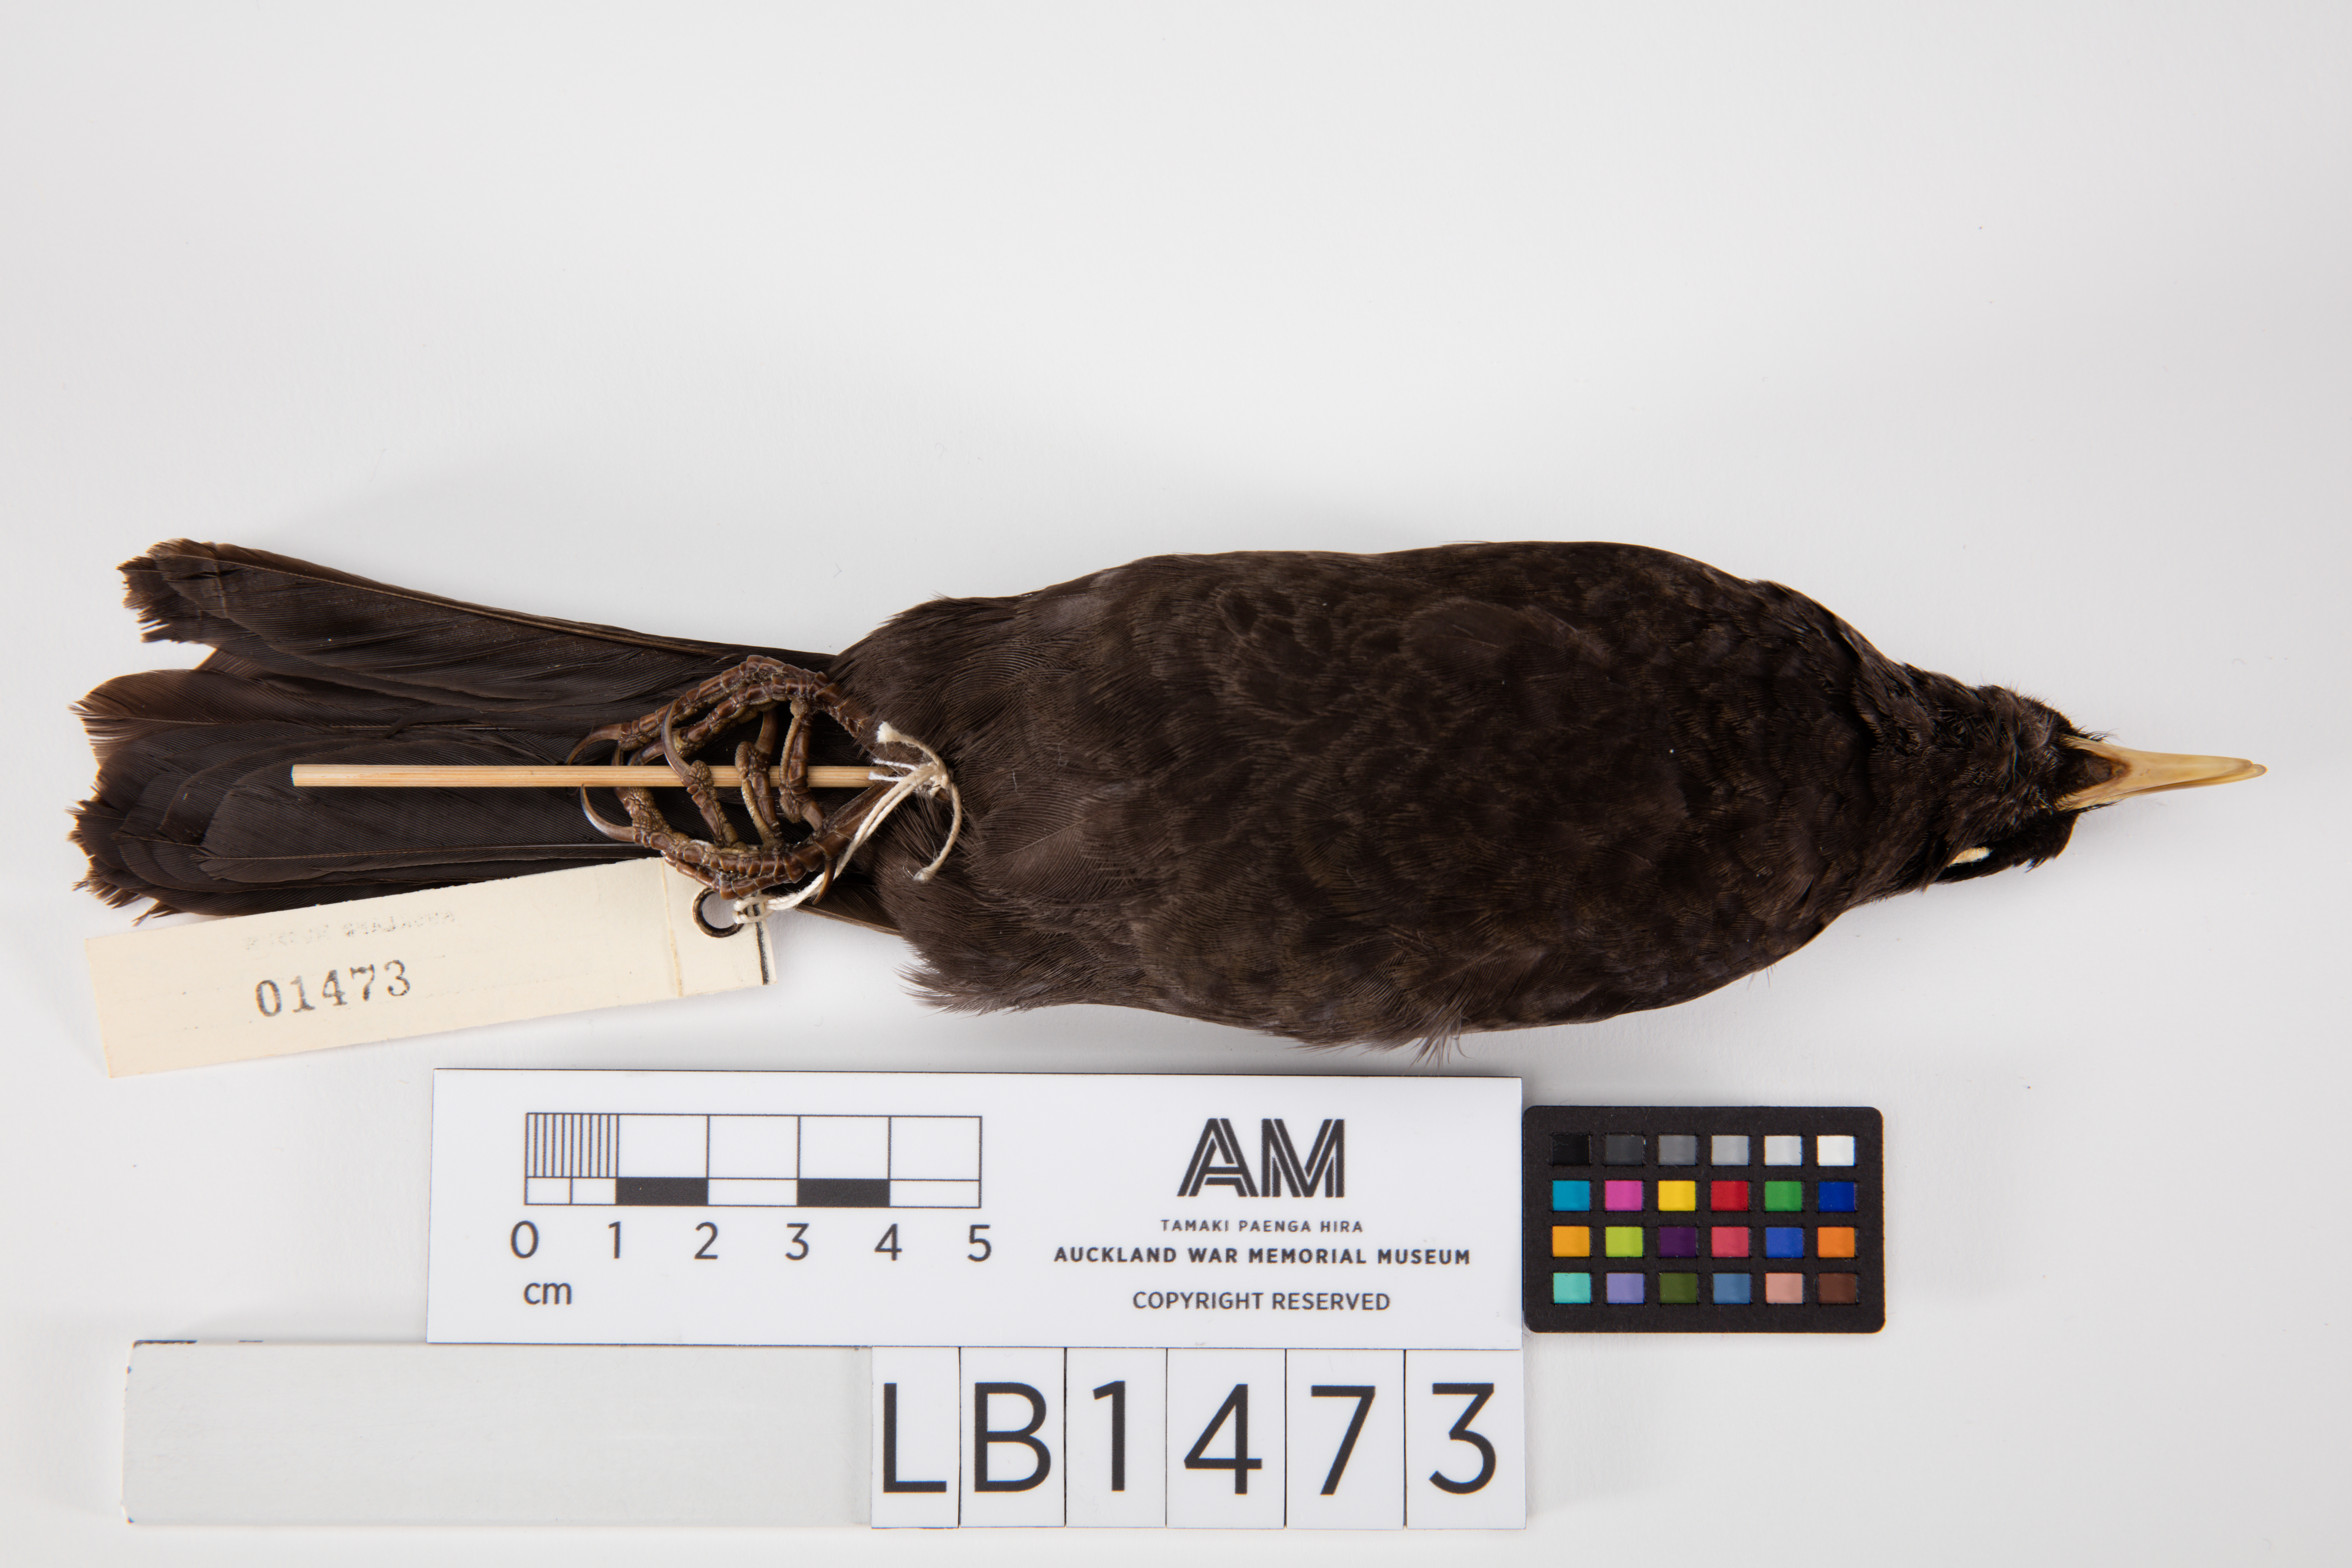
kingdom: Animalia
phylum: Chordata
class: Aves
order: Passeriformes
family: Turdidae
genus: Turdus
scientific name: Turdus merula
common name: Common blackbird
